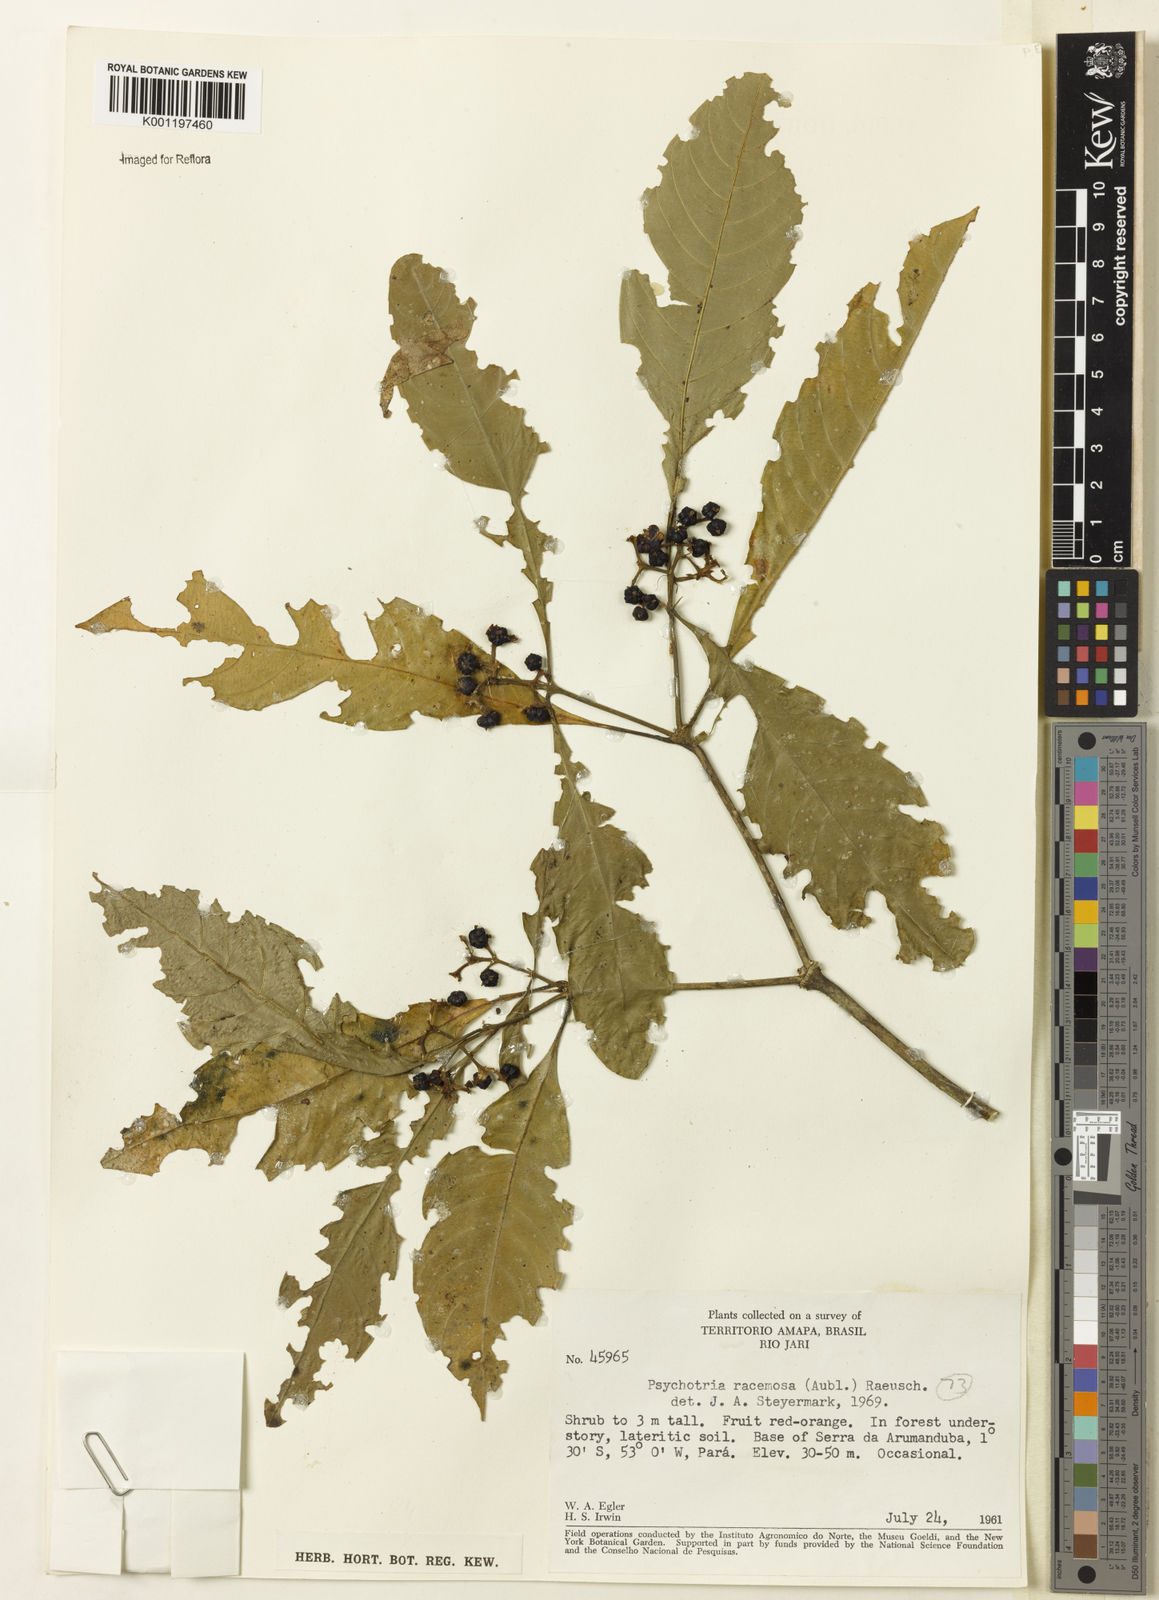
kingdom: Plantae
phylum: Tracheophyta
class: Magnoliopsida
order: Gentianales
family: Rubiaceae
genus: Palicourea
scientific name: Palicourea racemosa
